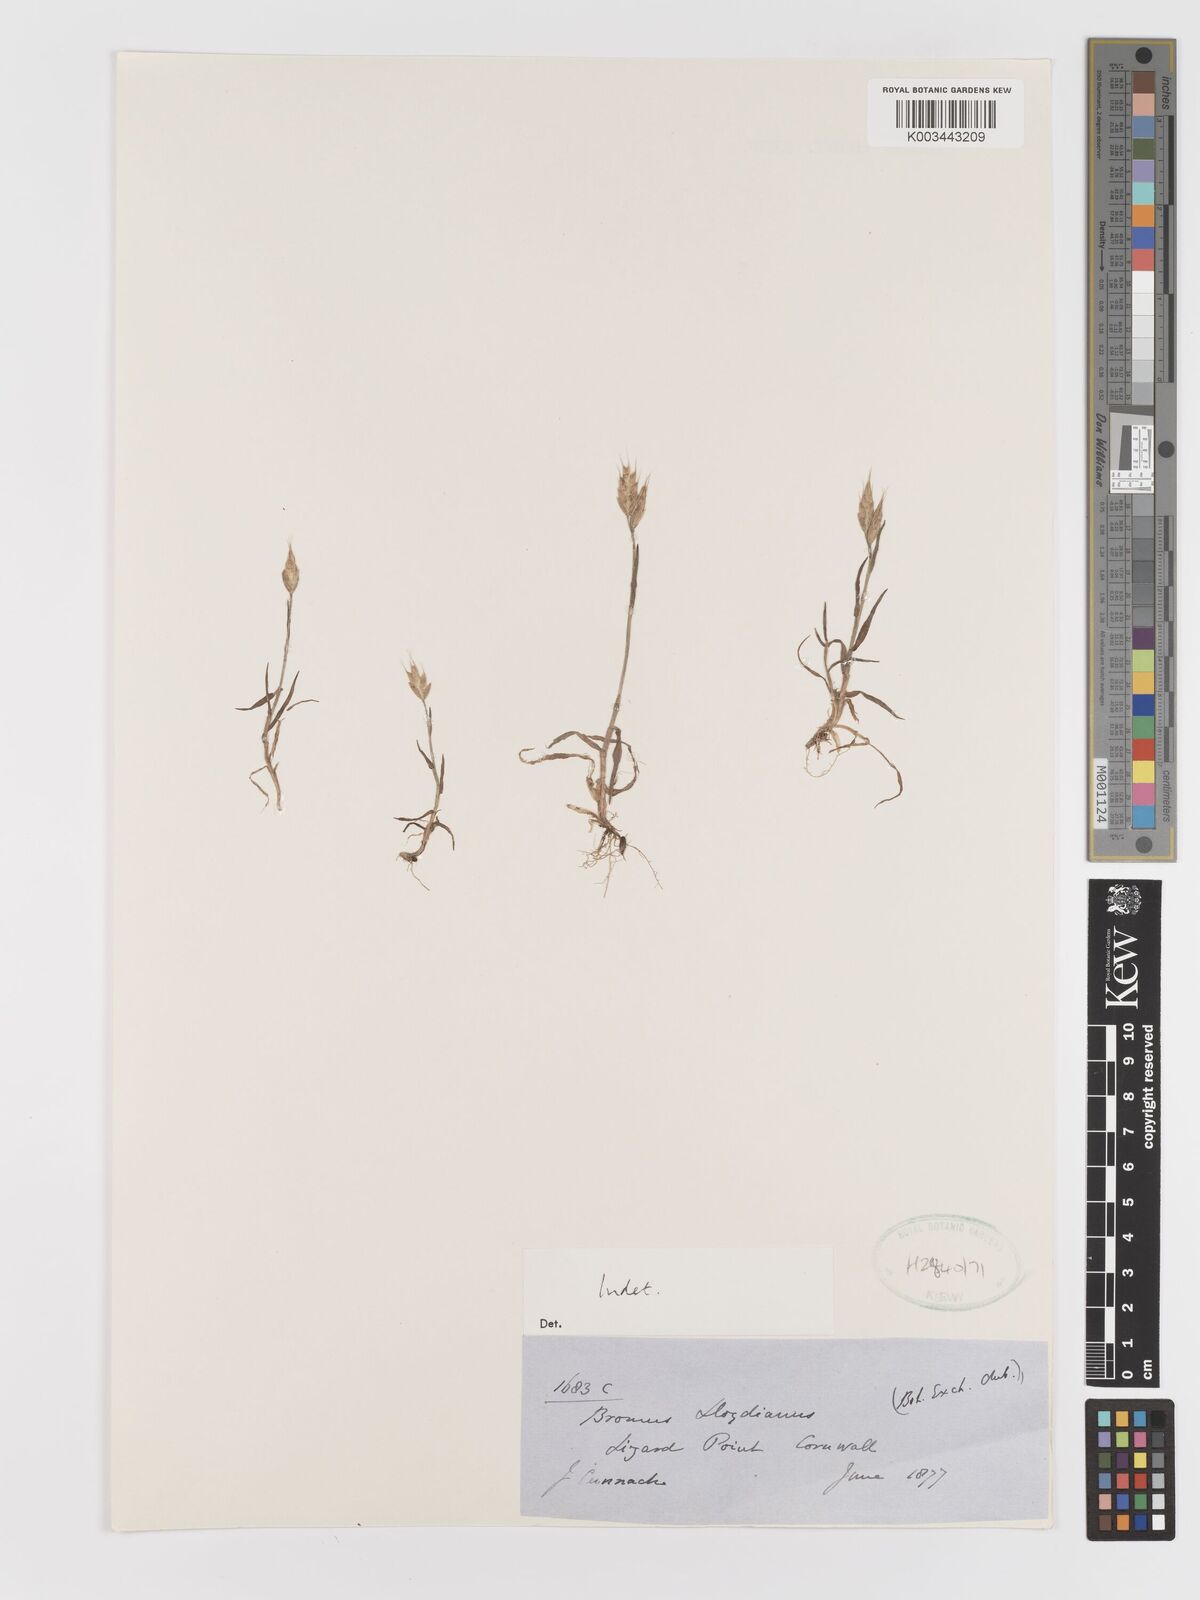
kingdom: Plantae
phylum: Tracheophyta
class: Liliopsida
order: Poales
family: Poaceae
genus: Bromus
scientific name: Bromus
